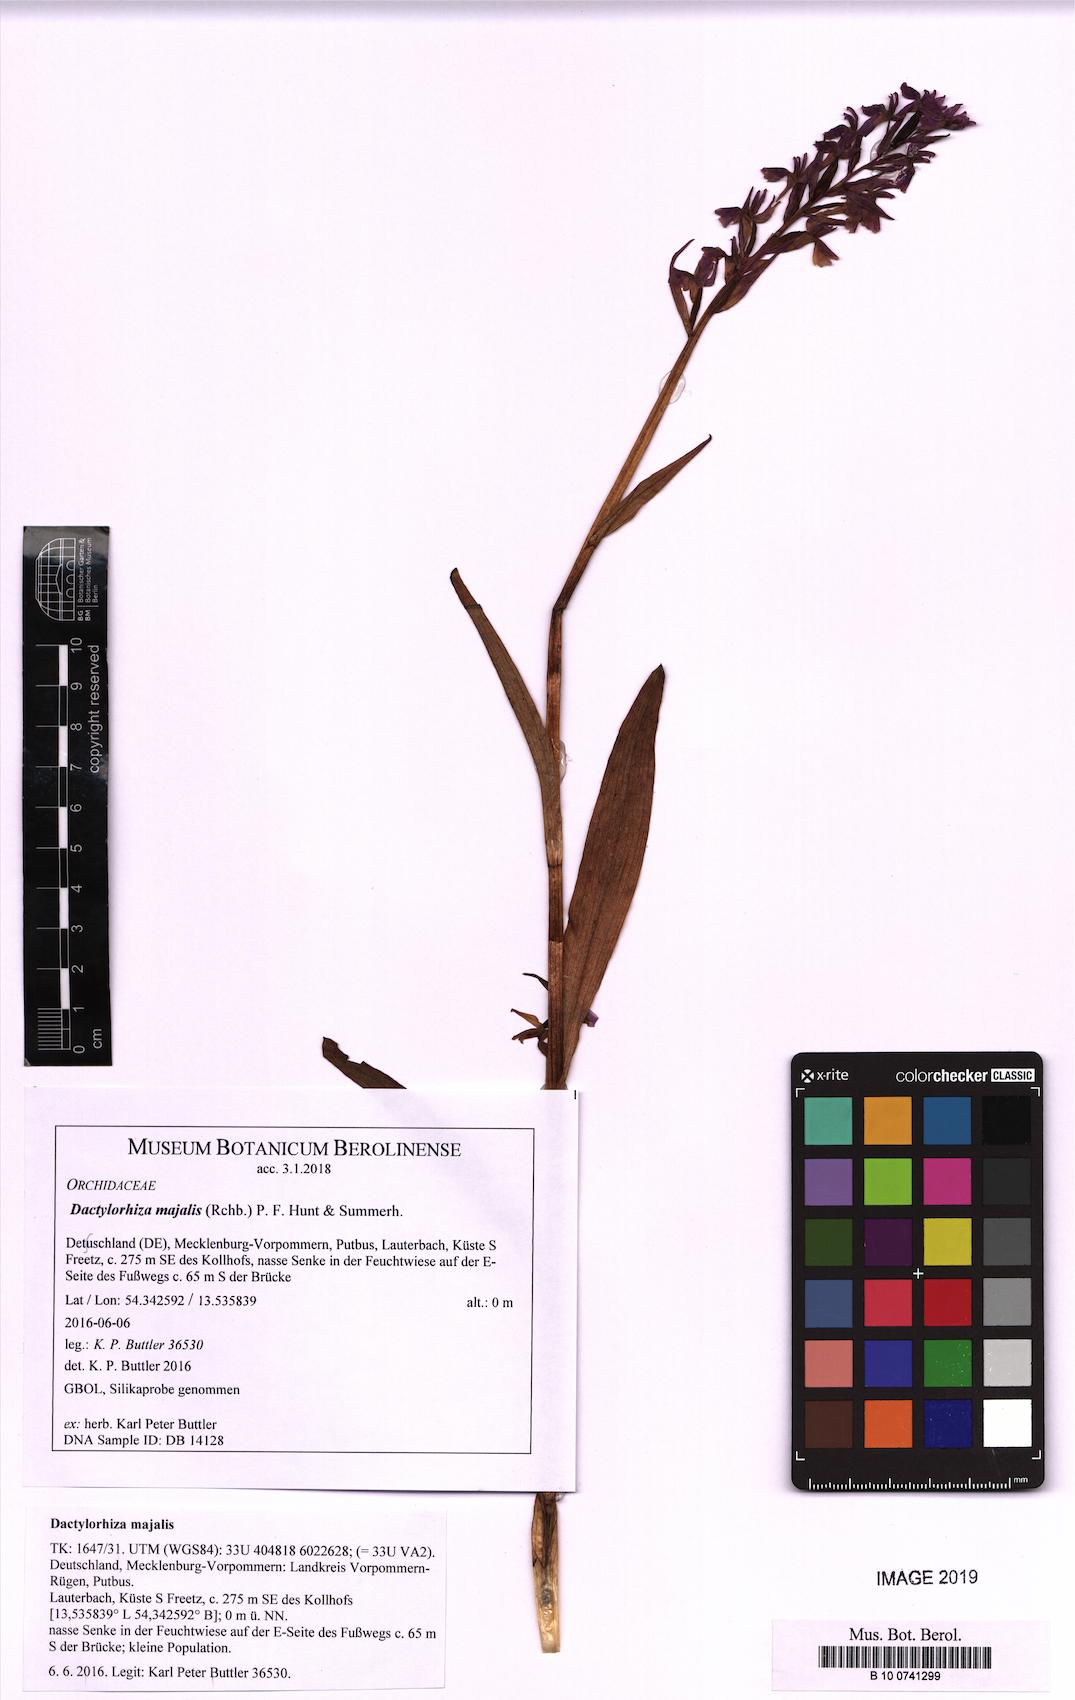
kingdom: Plantae
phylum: Tracheophyta
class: Liliopsida
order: Asparagales
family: Orchidaceae
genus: Dactylorhiza
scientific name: Dactylorhiza majalis
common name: Marsh orchid
